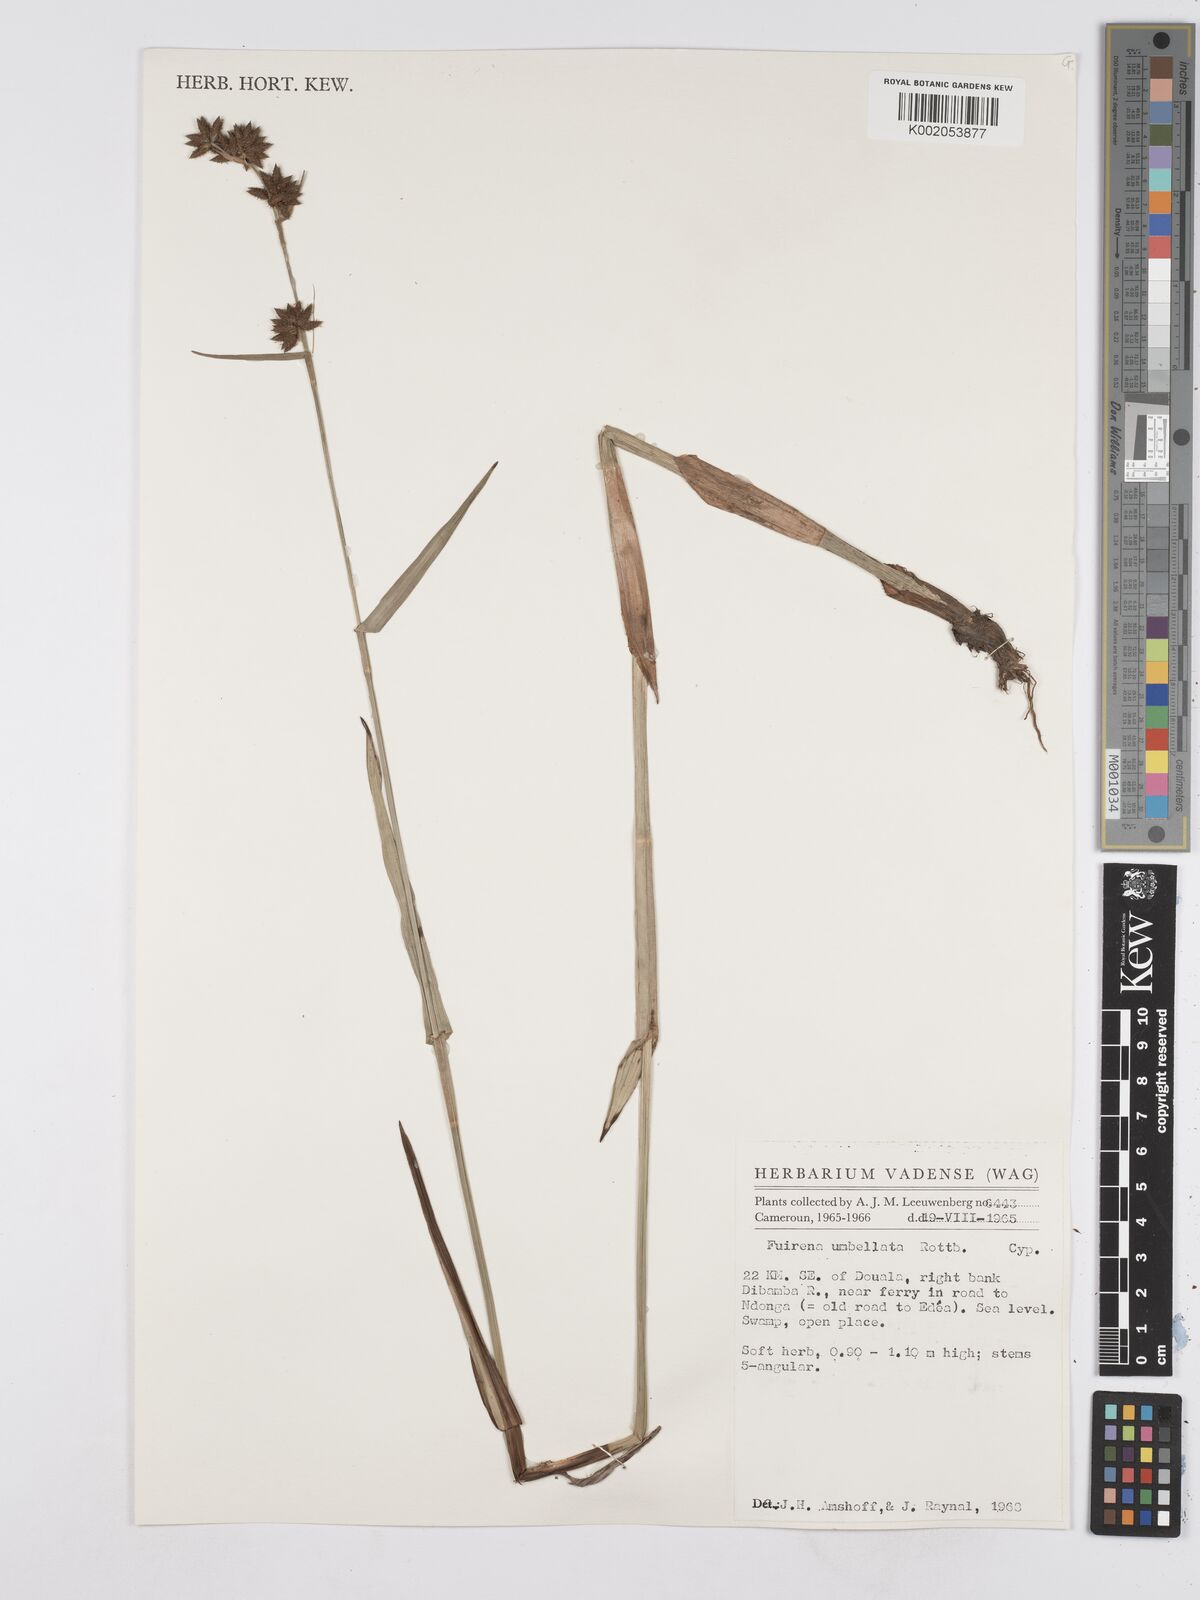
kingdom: Plantae
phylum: Tracheophyta
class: Liliopsida
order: Poales
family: Cyperaceae
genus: Fuirena
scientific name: Fuirena umbellata
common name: Yefen
